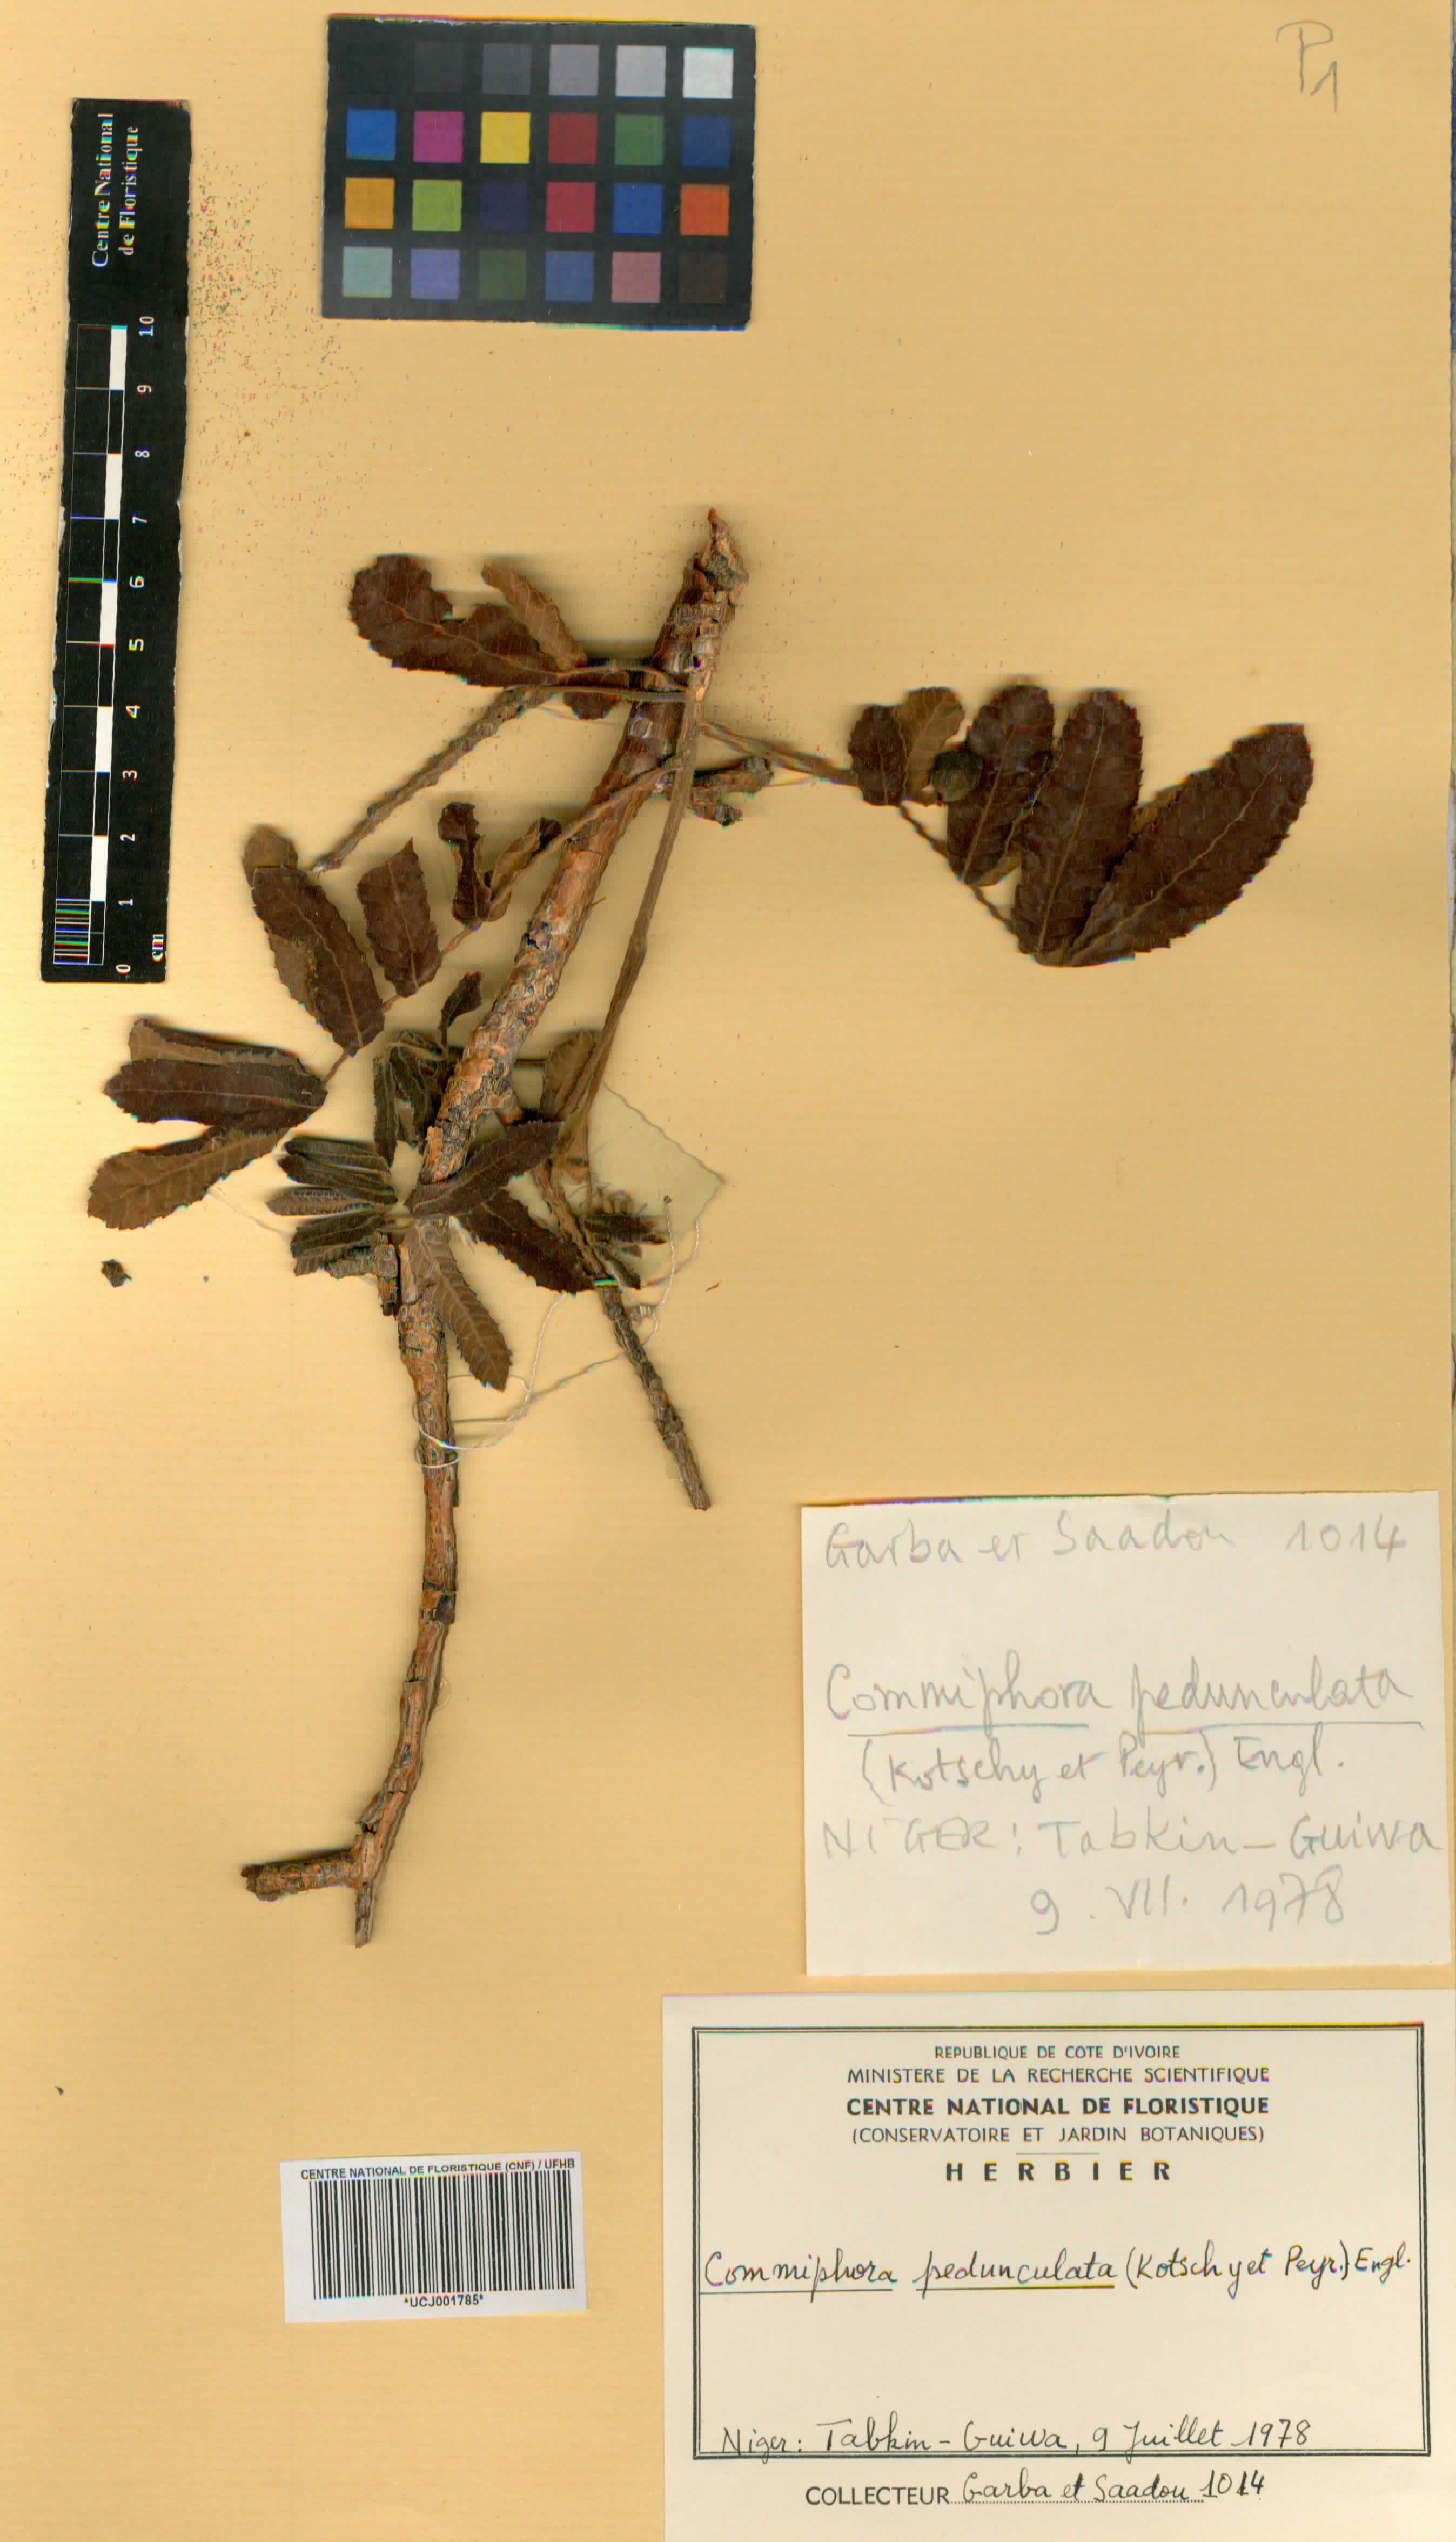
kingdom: Plantae
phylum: Tracheophyta
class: Magnoliopsida
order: Sapindales
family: Burseraceae
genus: Commiphora
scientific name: Commiphora pedunculata
